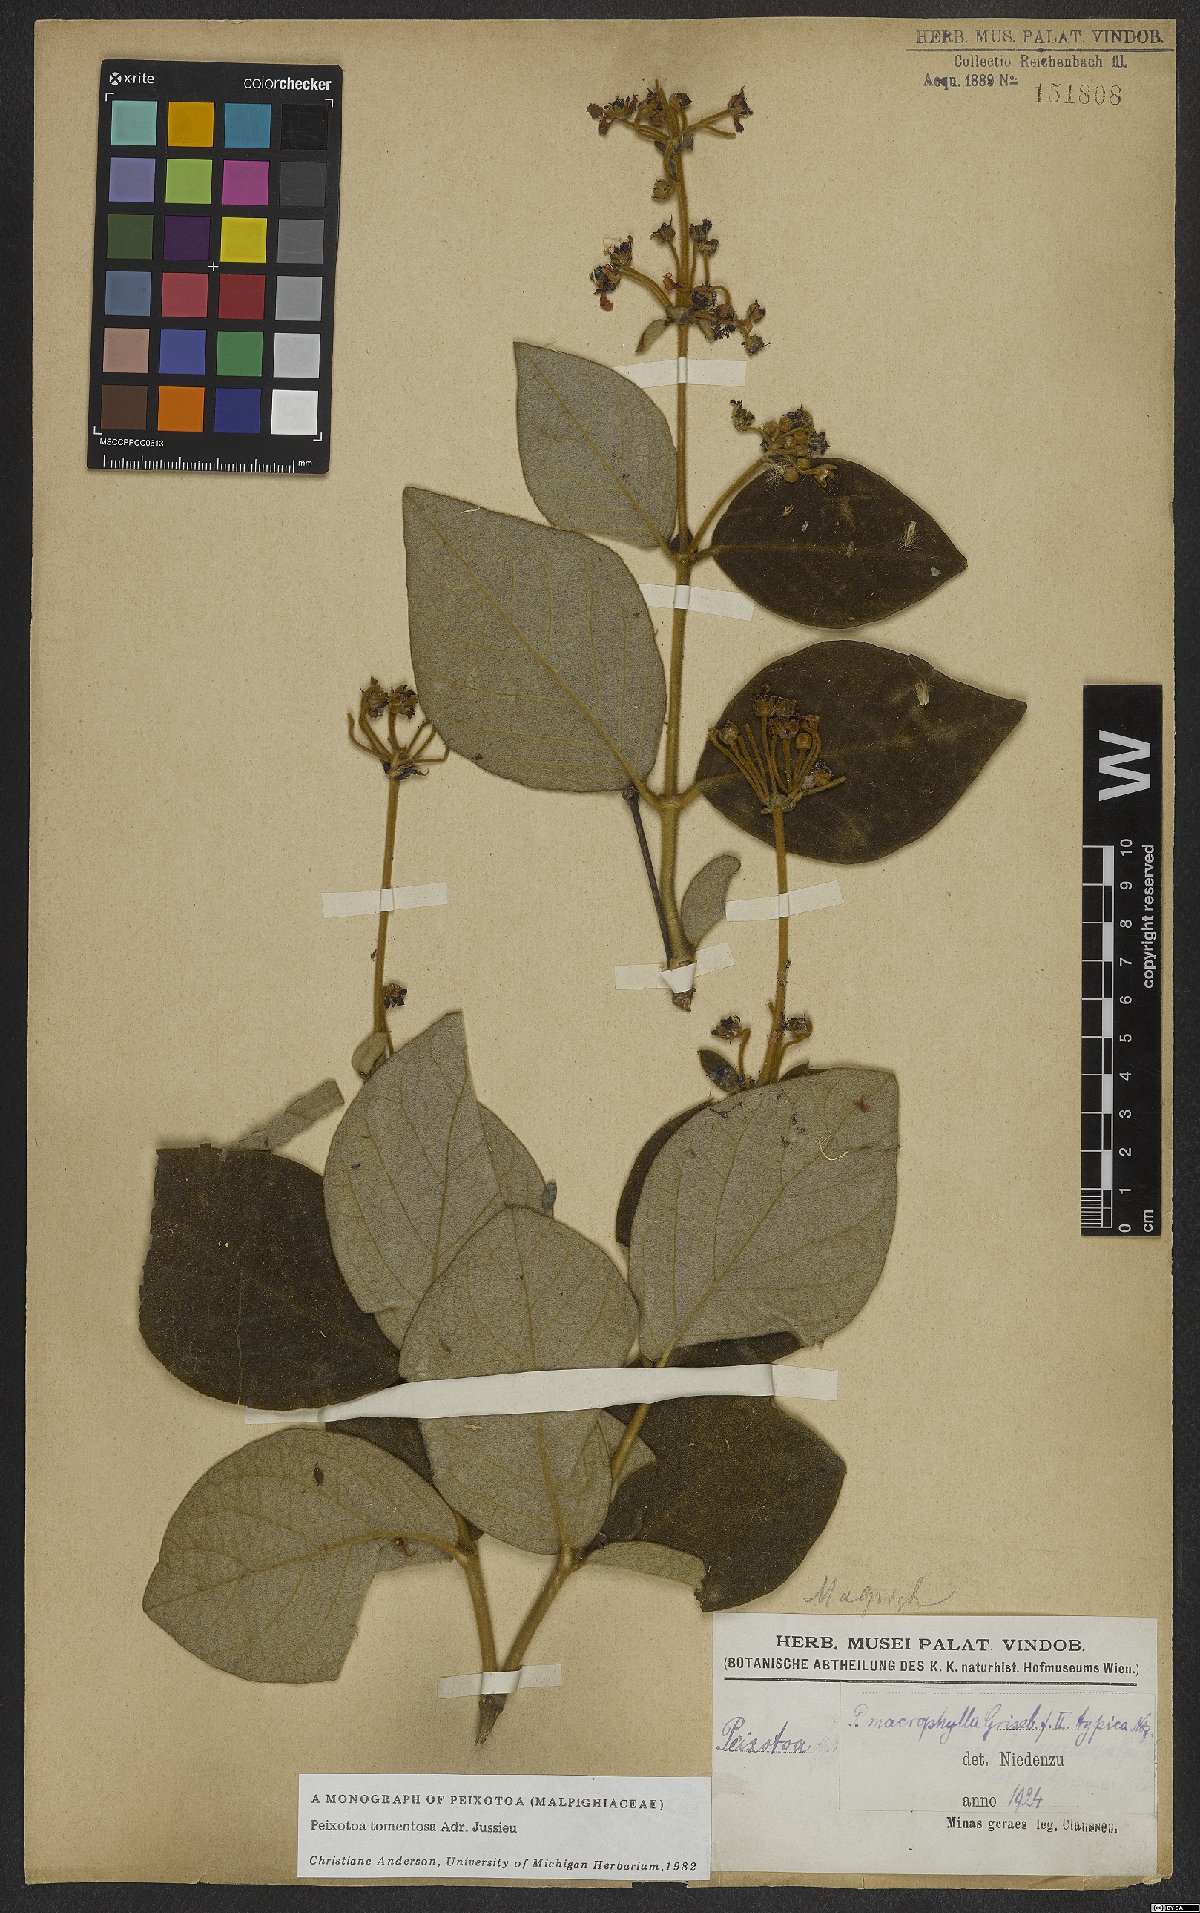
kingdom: Plantae
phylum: Tracheophyta
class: Magnoliopsida
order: Malpighiales
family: Malpighiaceae
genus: Peixotoa
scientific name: Peixotoa tomentosa
